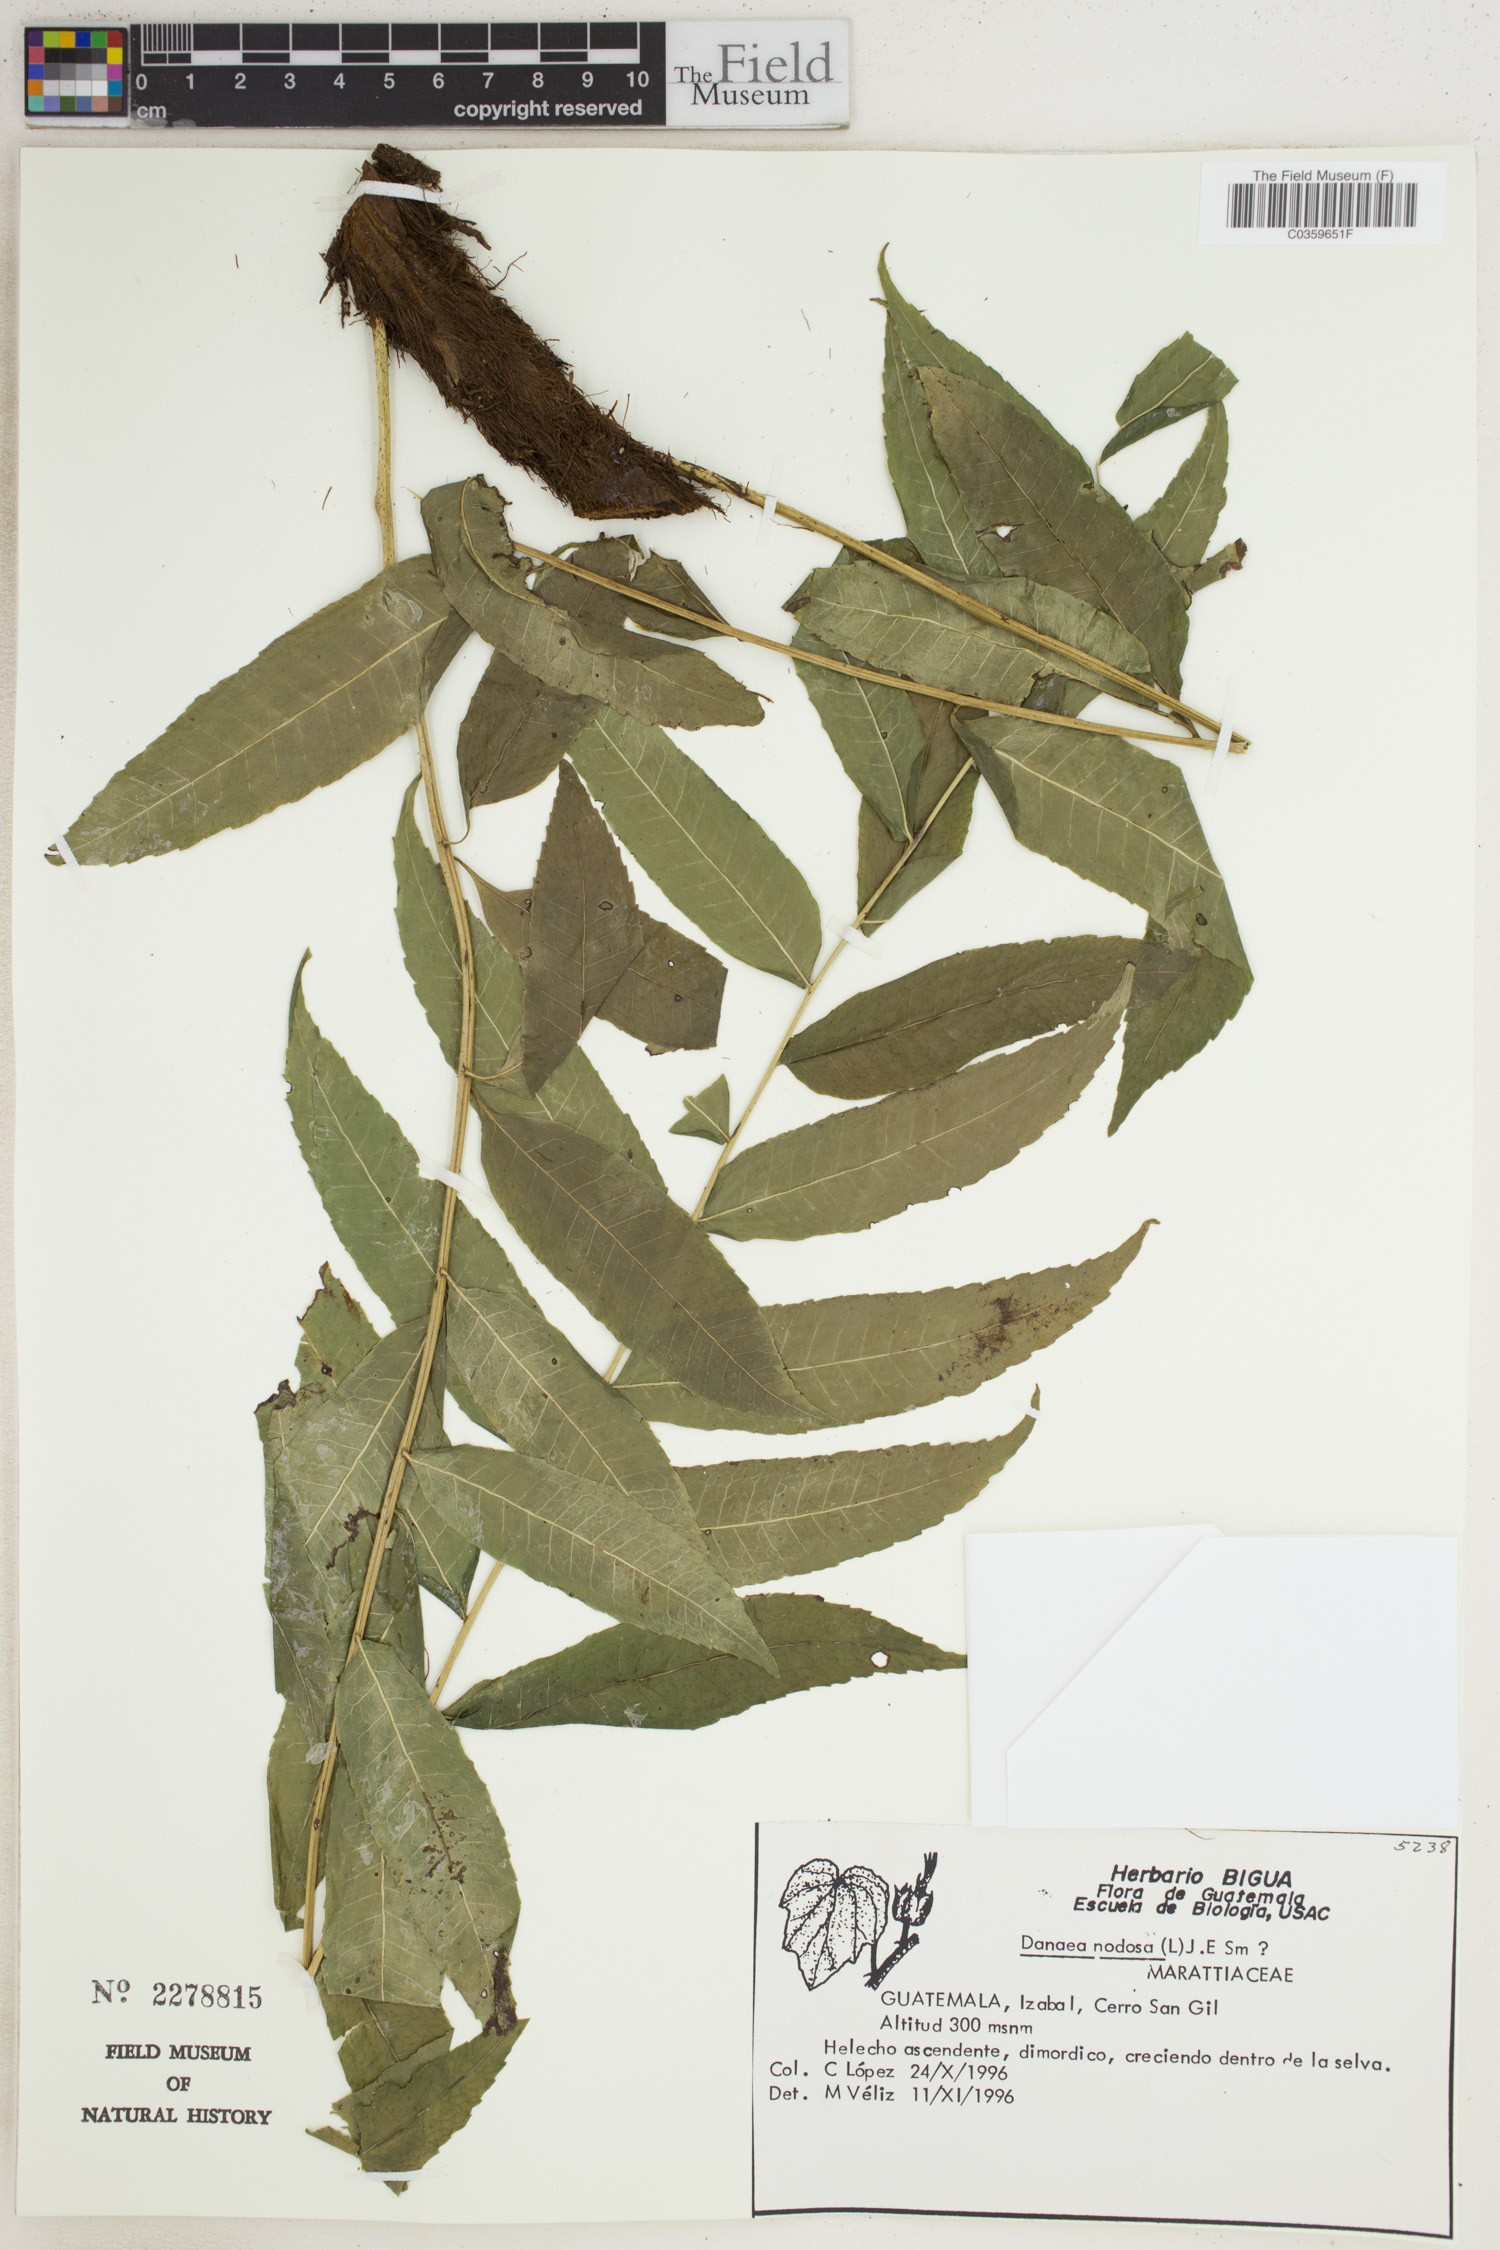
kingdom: Plantae
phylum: Tracheophyta
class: Polypodiopsida
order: Marattiales
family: Marattiaceae
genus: Danaea
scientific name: Danaea nodosa
